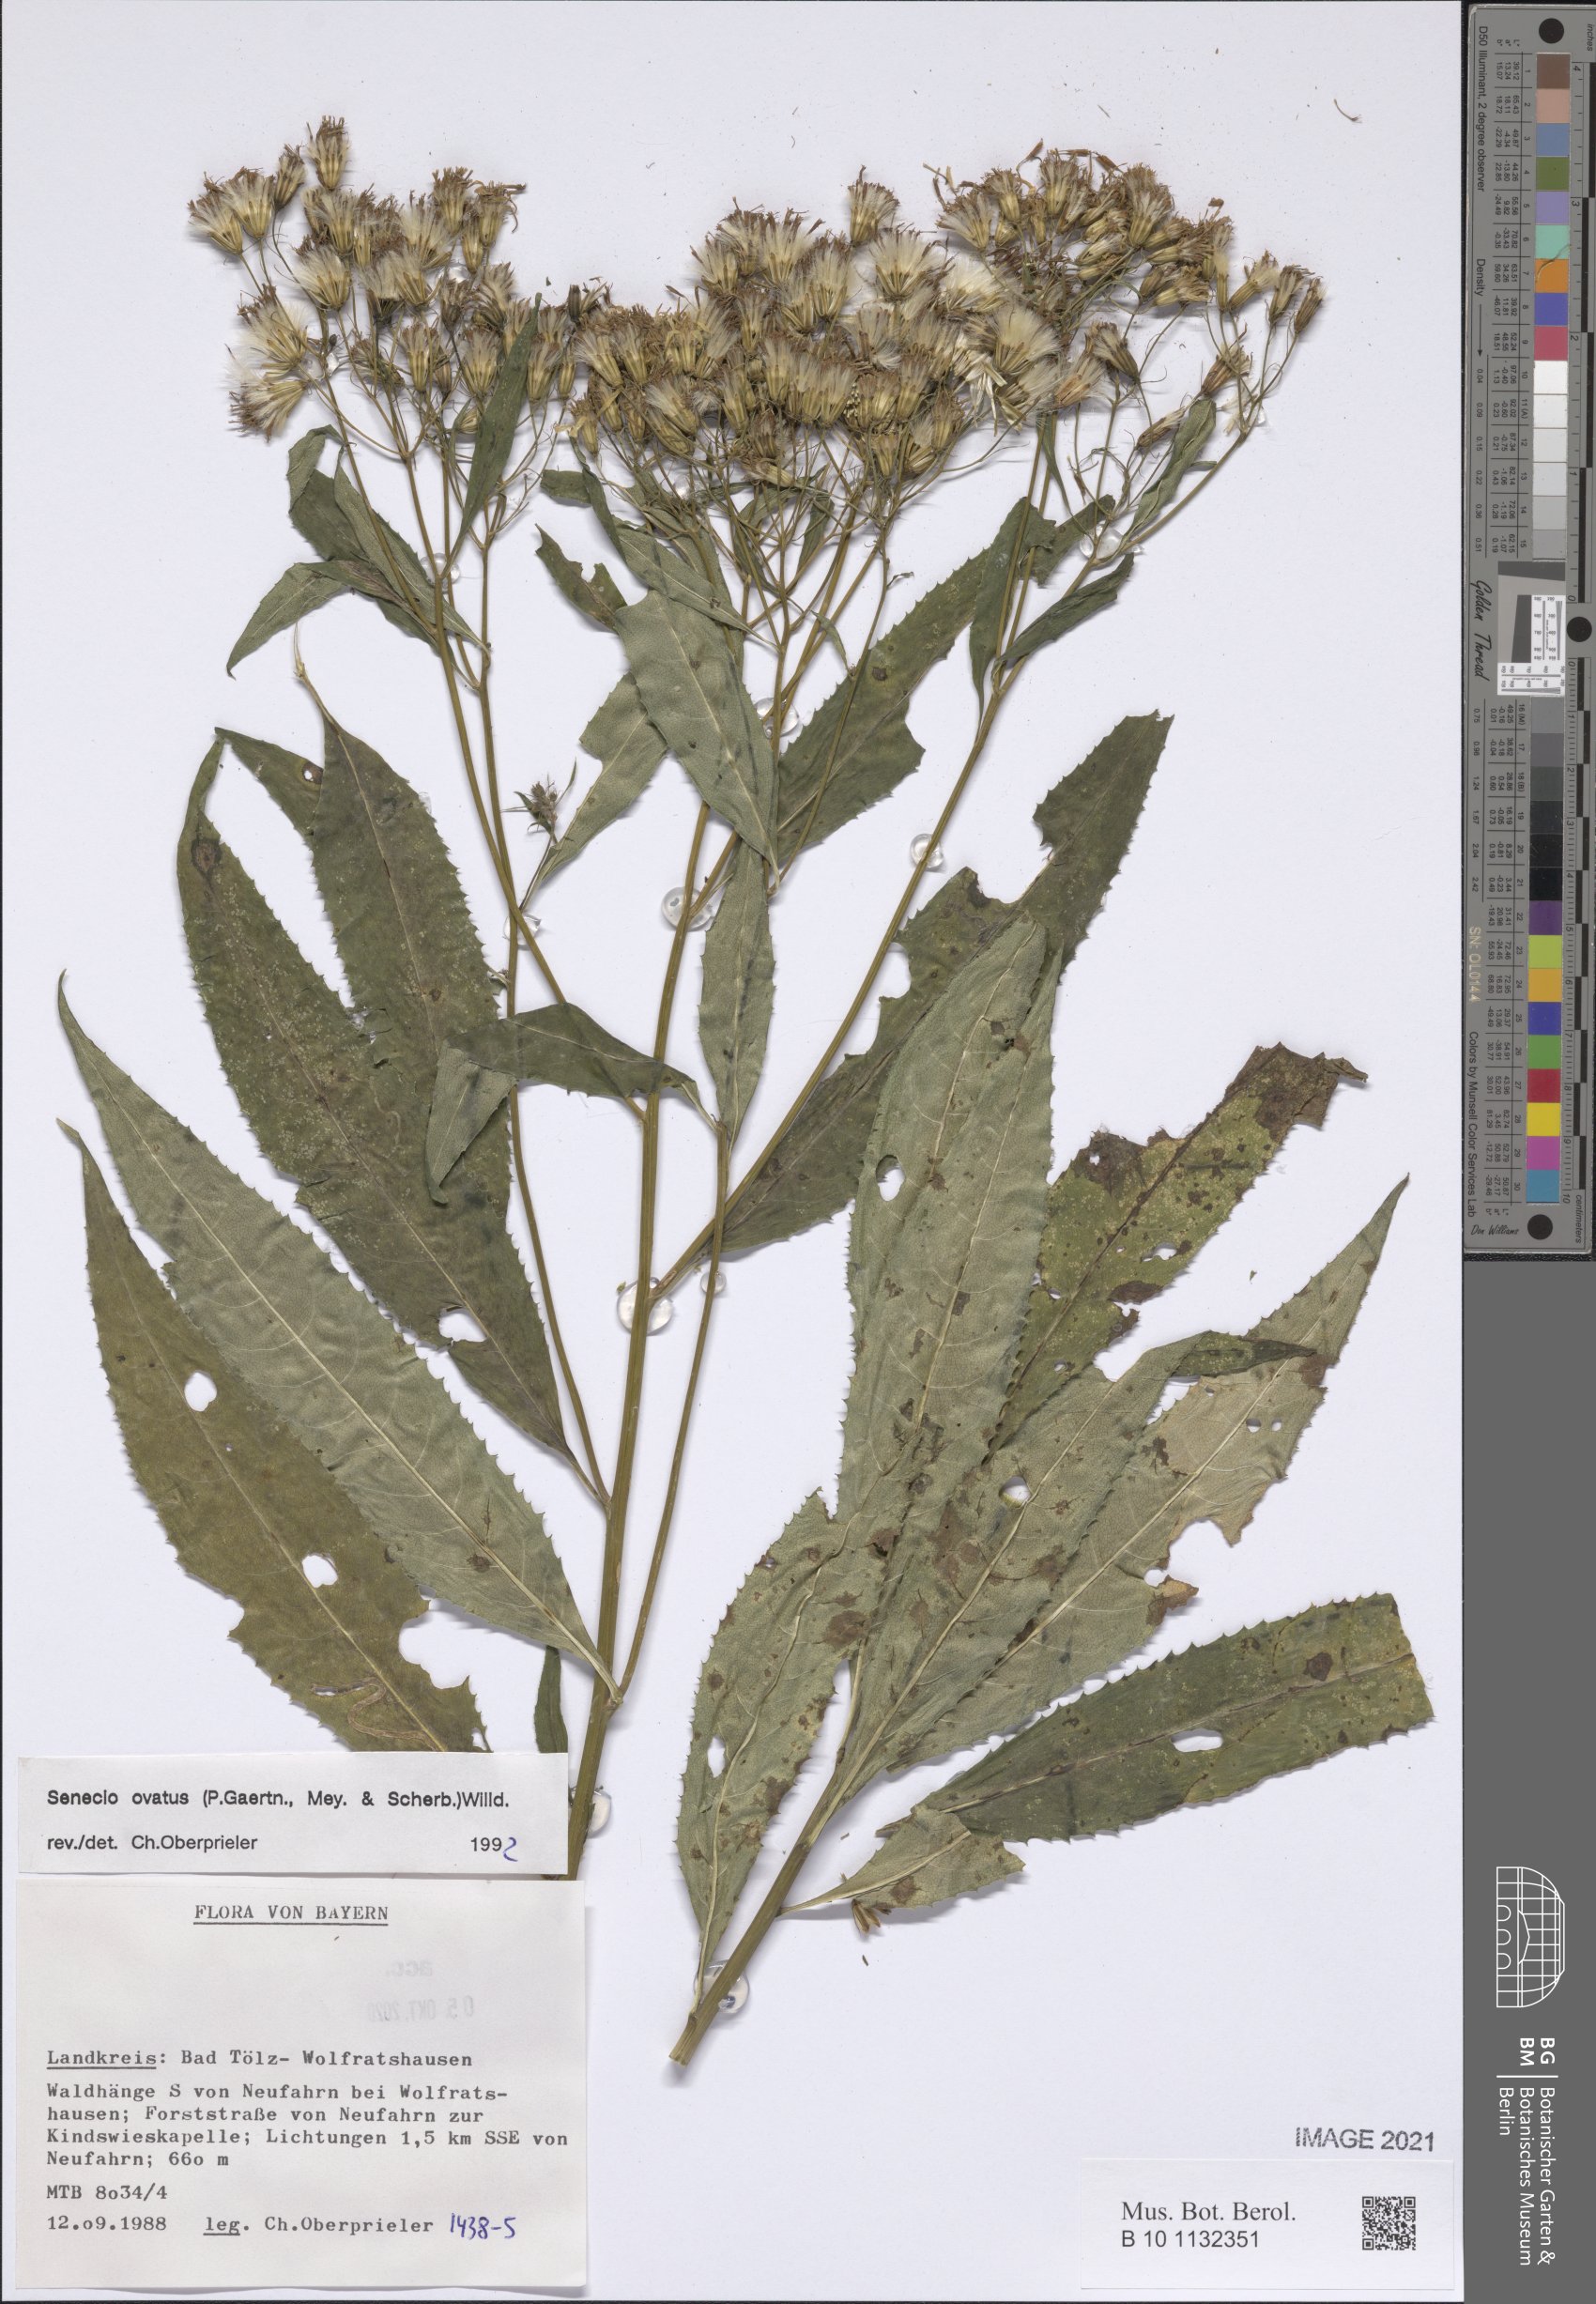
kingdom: Plantae
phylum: Tracheophyta
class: Magnoliopsida
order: Asterales
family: Asteraceae
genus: Senecio
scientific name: Senecio ovatus
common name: Wood ragwort
